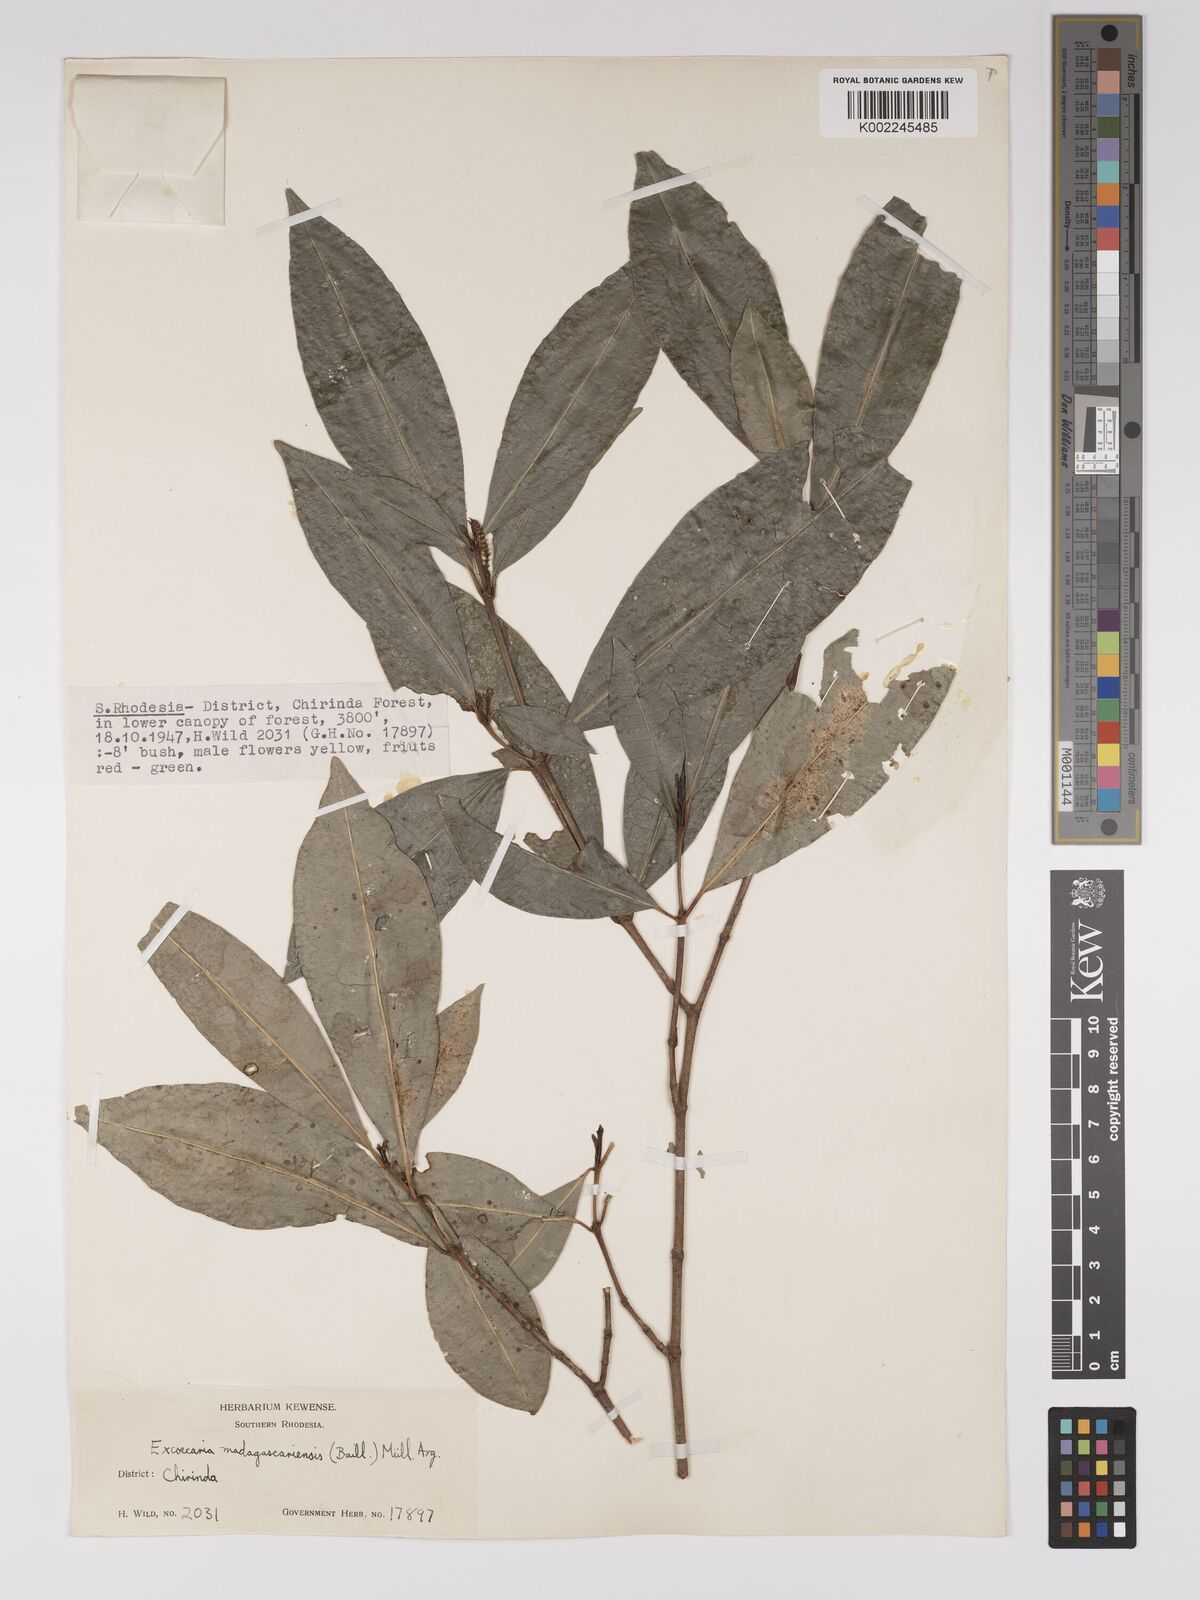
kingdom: Plantae
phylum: Tracheophyta
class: Magnoliopsida
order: Malpighiales
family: Euphorbiaceae
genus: Excoecaria
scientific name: Excoecaria madagascariensis
